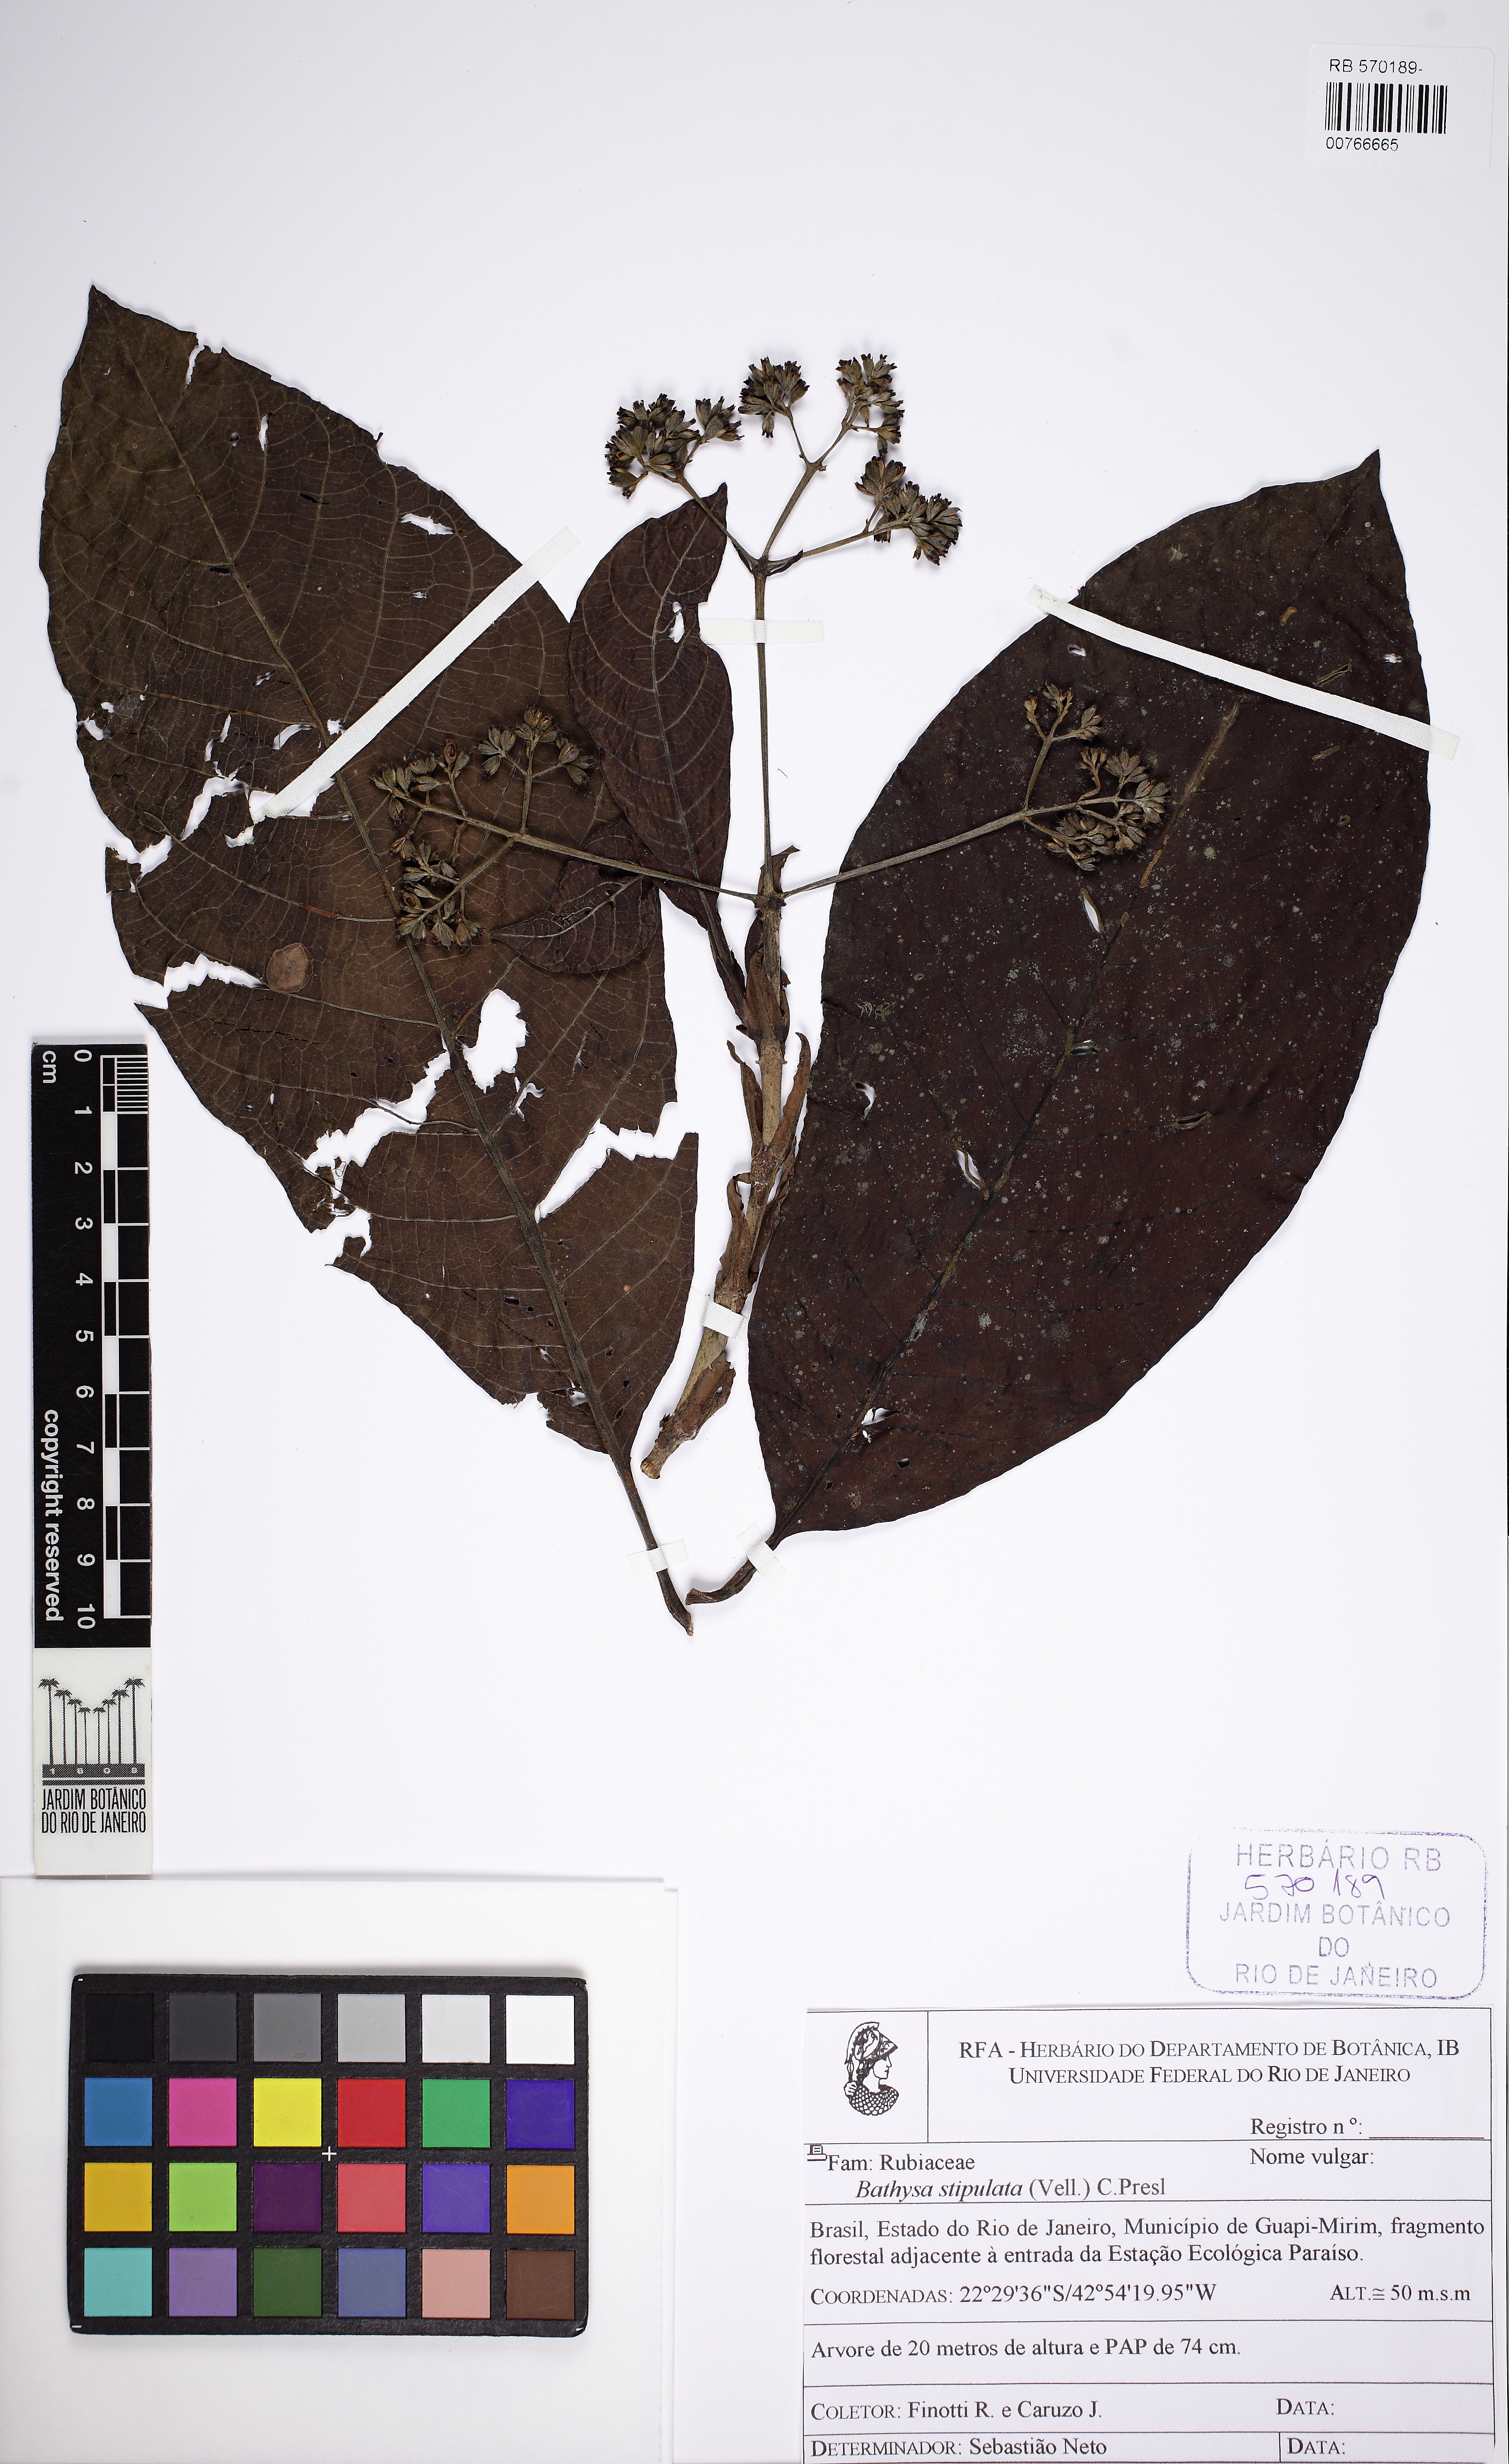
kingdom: Plantae
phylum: Tracheophyta
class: Magnoliopsida
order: Gentianales
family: Rubiaceae
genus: Bathysa
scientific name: Bathysa stipulata
